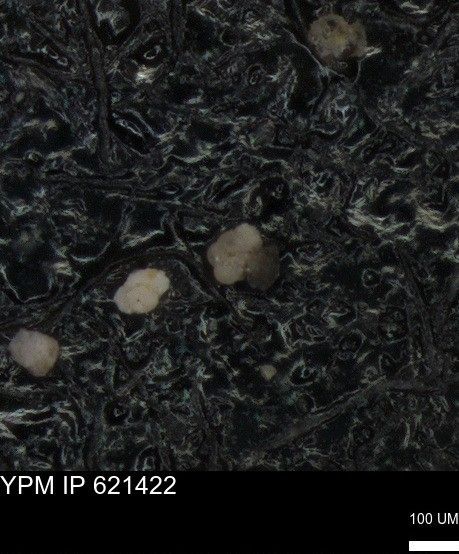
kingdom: Chromista
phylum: Foraminifera
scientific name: Foraminifera
